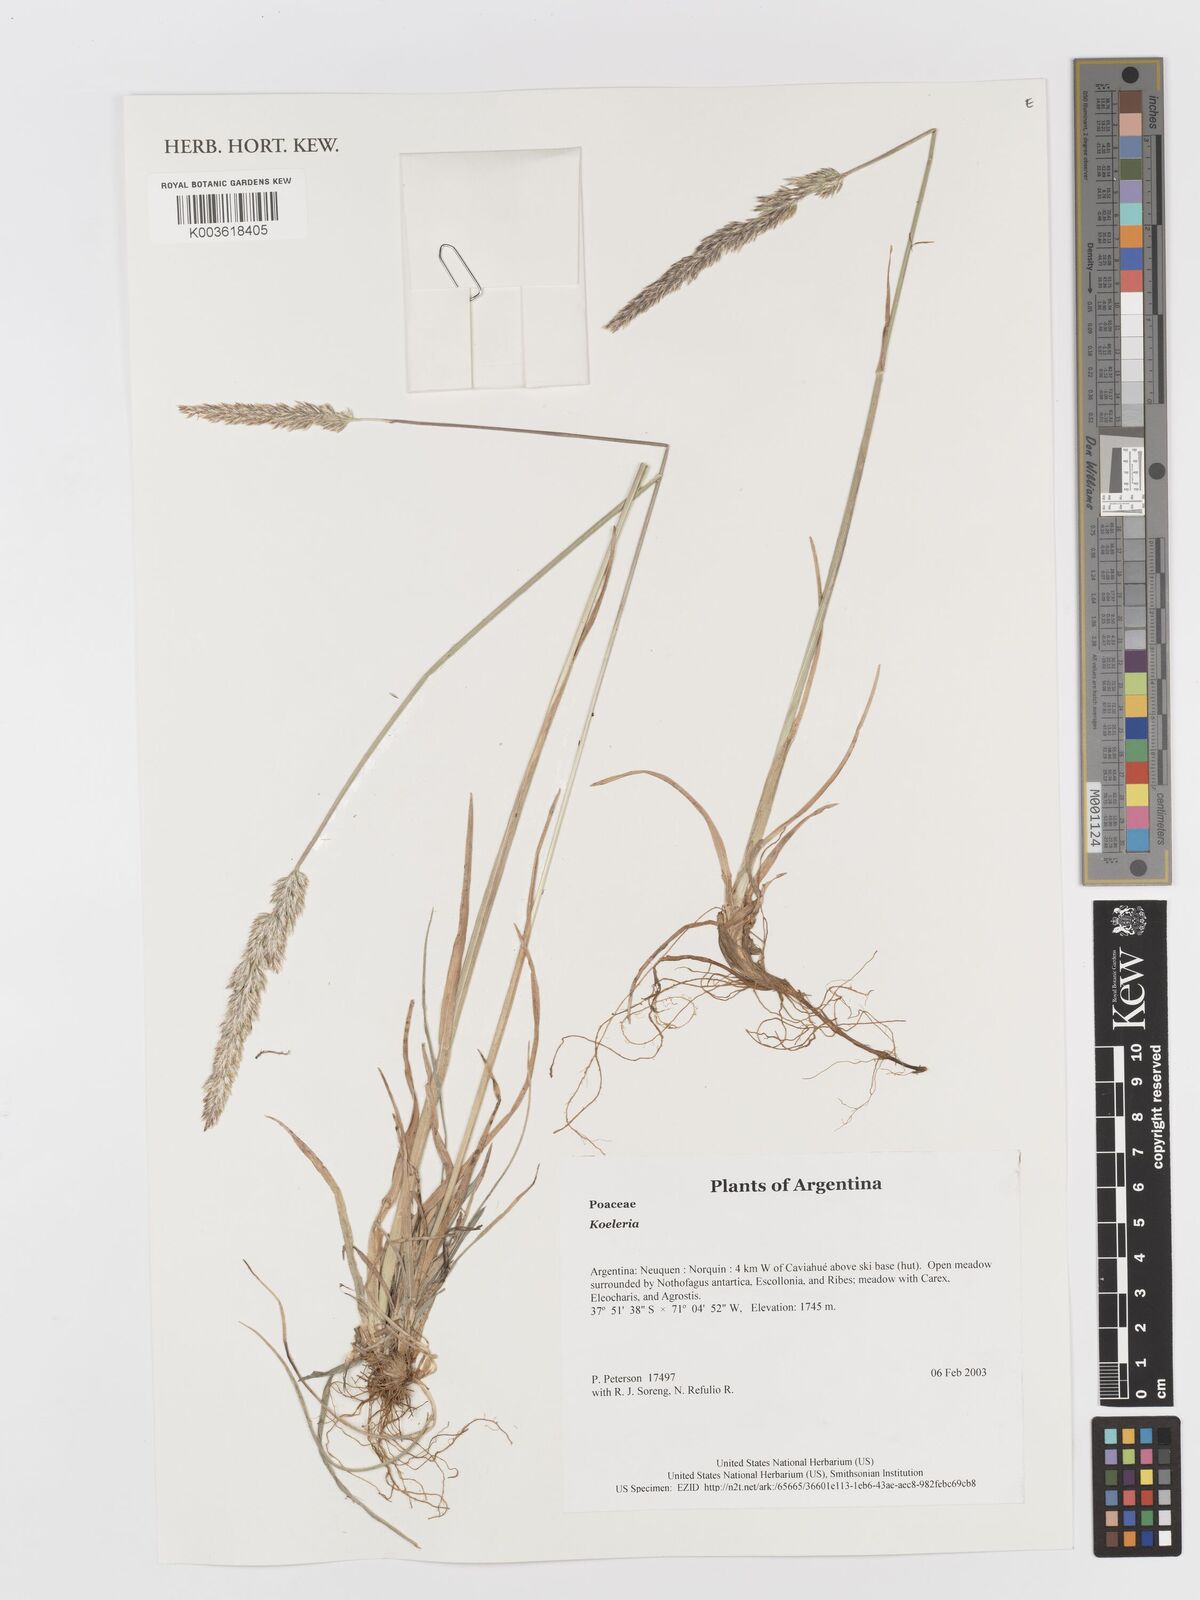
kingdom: Plantae
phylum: Tracheophyta
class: Liliopsida
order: Poales
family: Poaceae
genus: Koeleria
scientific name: Koeleria
